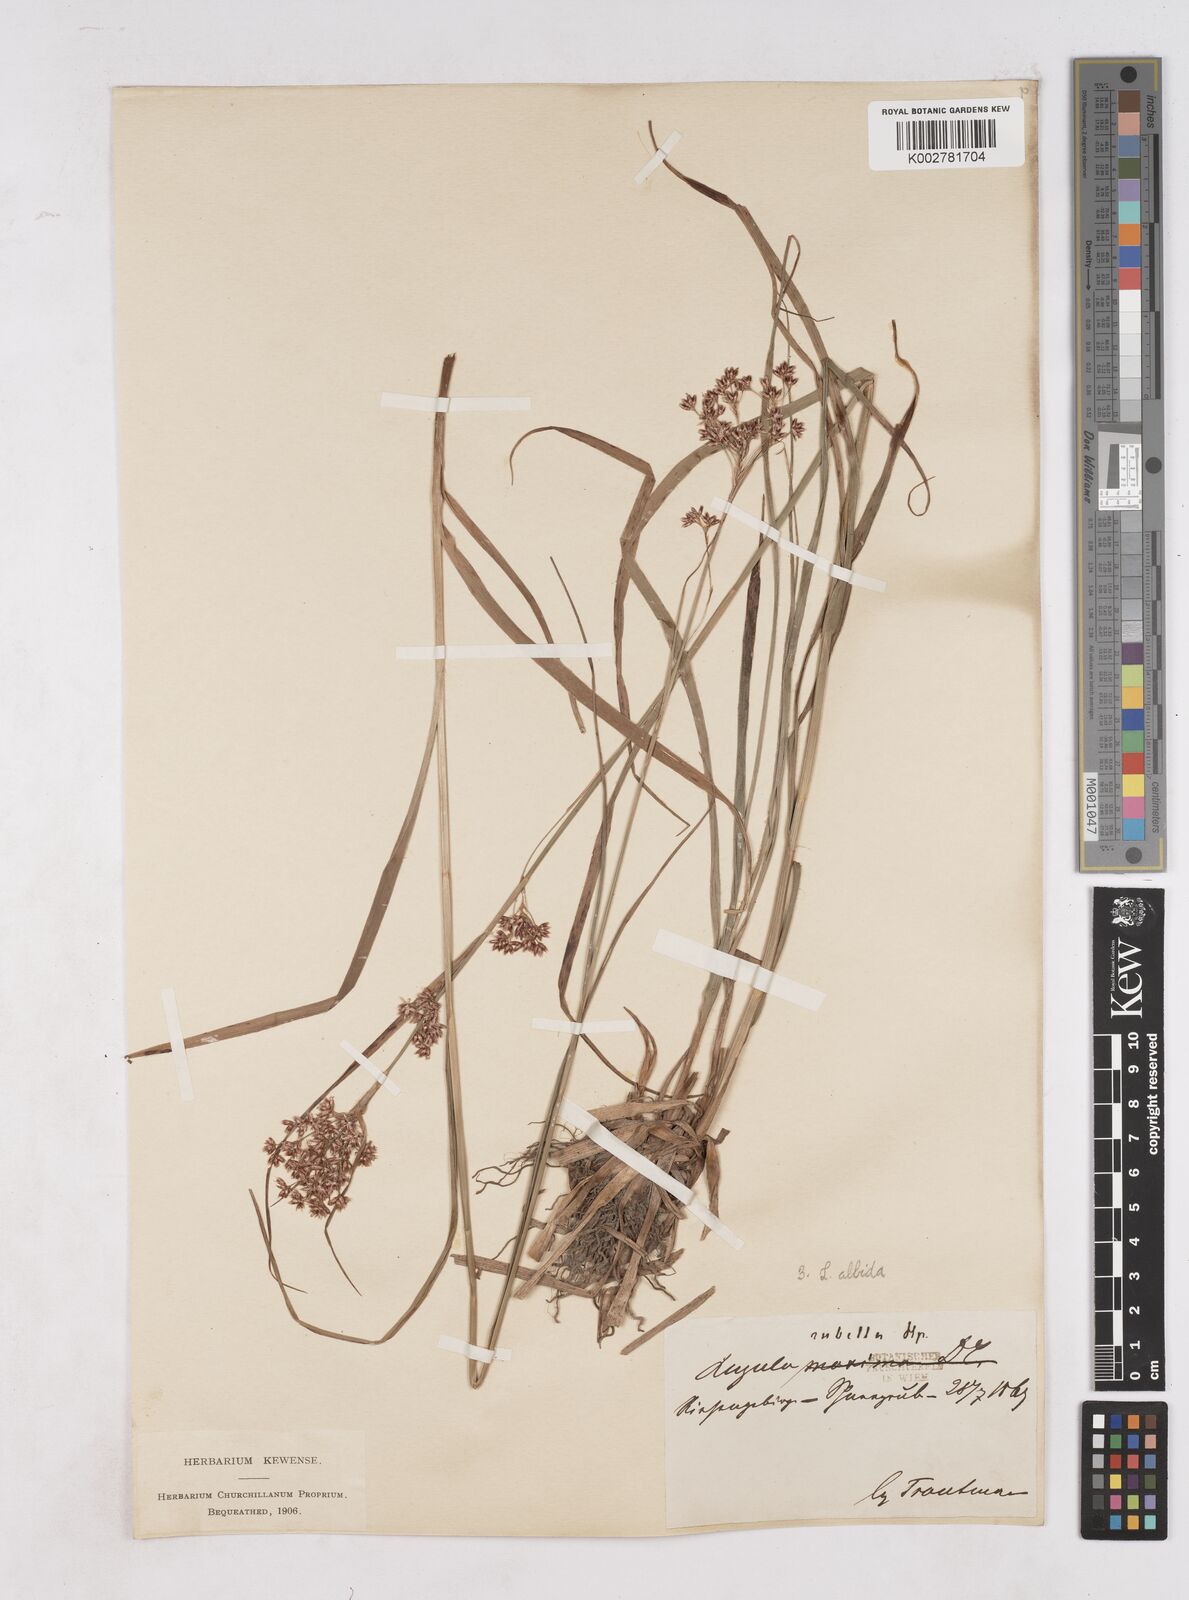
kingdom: Plantae
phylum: Tracheophyta
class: Liliopsida
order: Poales
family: Juncaceae
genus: Luzula
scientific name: Luzula luzuloides
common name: White wood-rush
